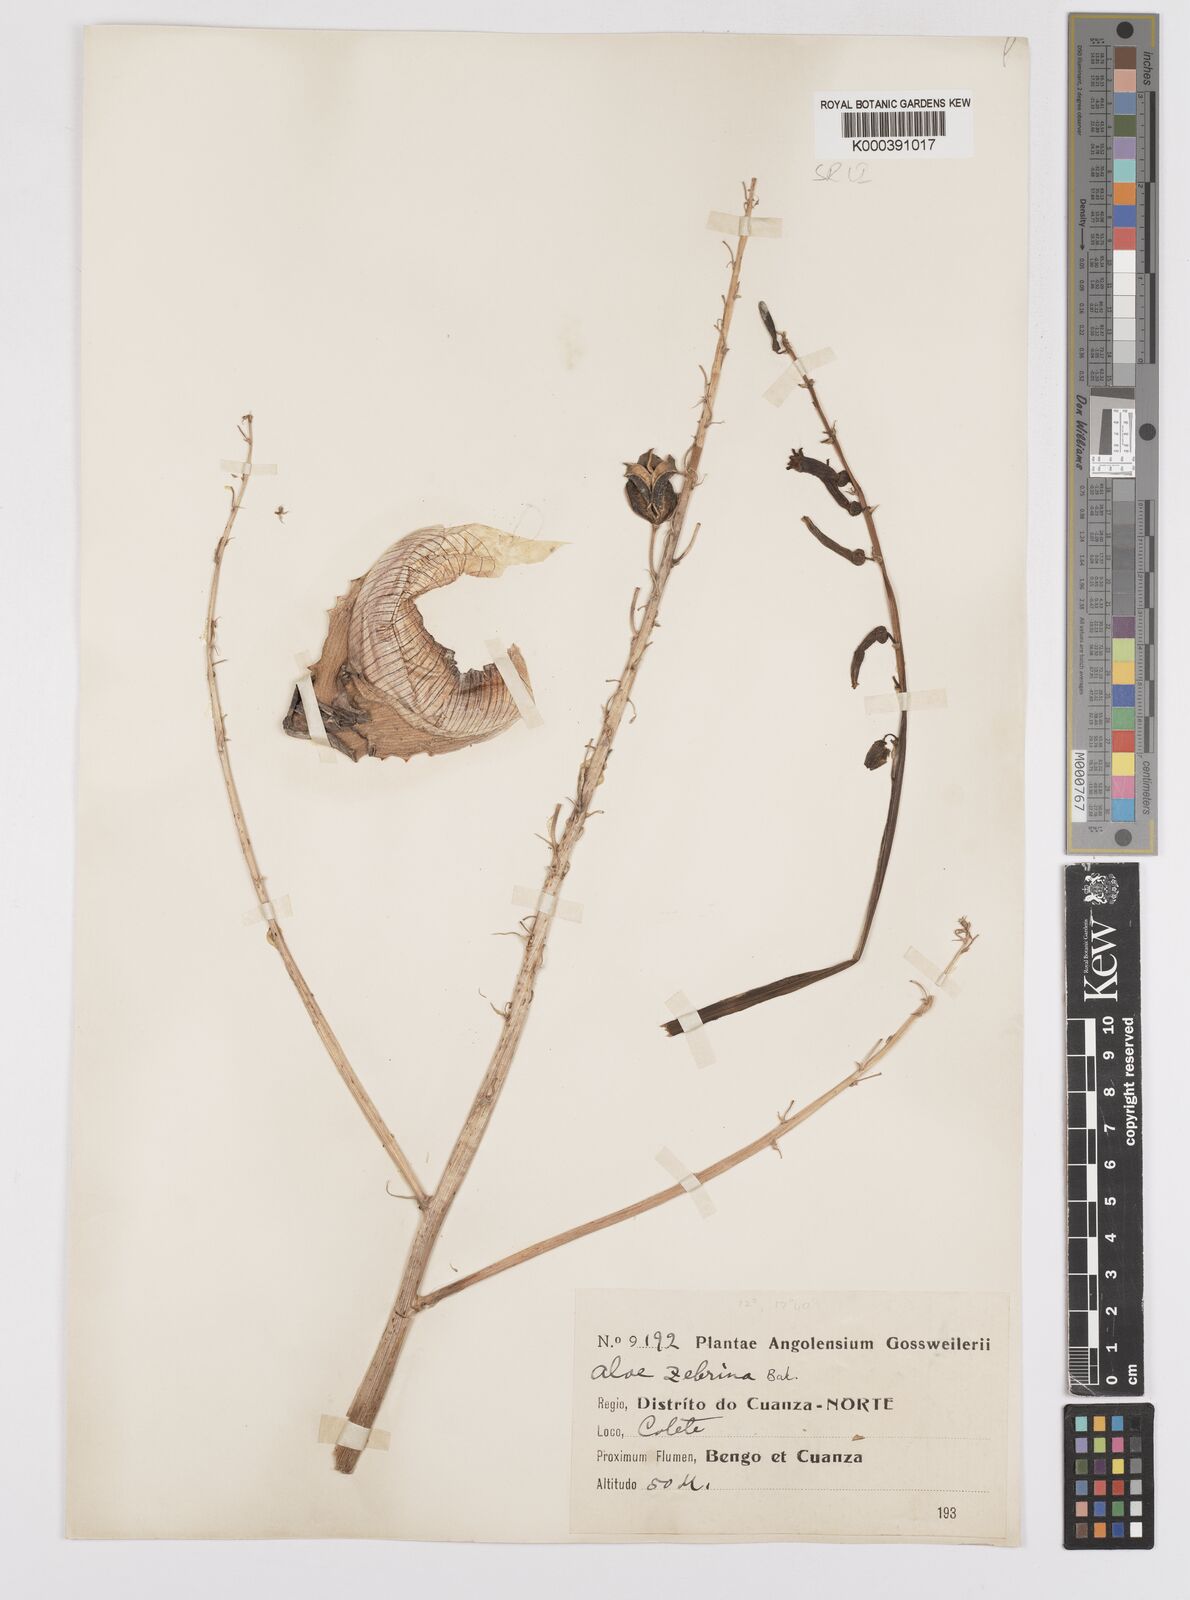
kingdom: Plantae
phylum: Tracheophyta
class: Liliopsida
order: Asparagales
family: Asphodelaceae
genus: Aloe
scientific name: Aloe zebrina
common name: Zebra-leaf aloe
